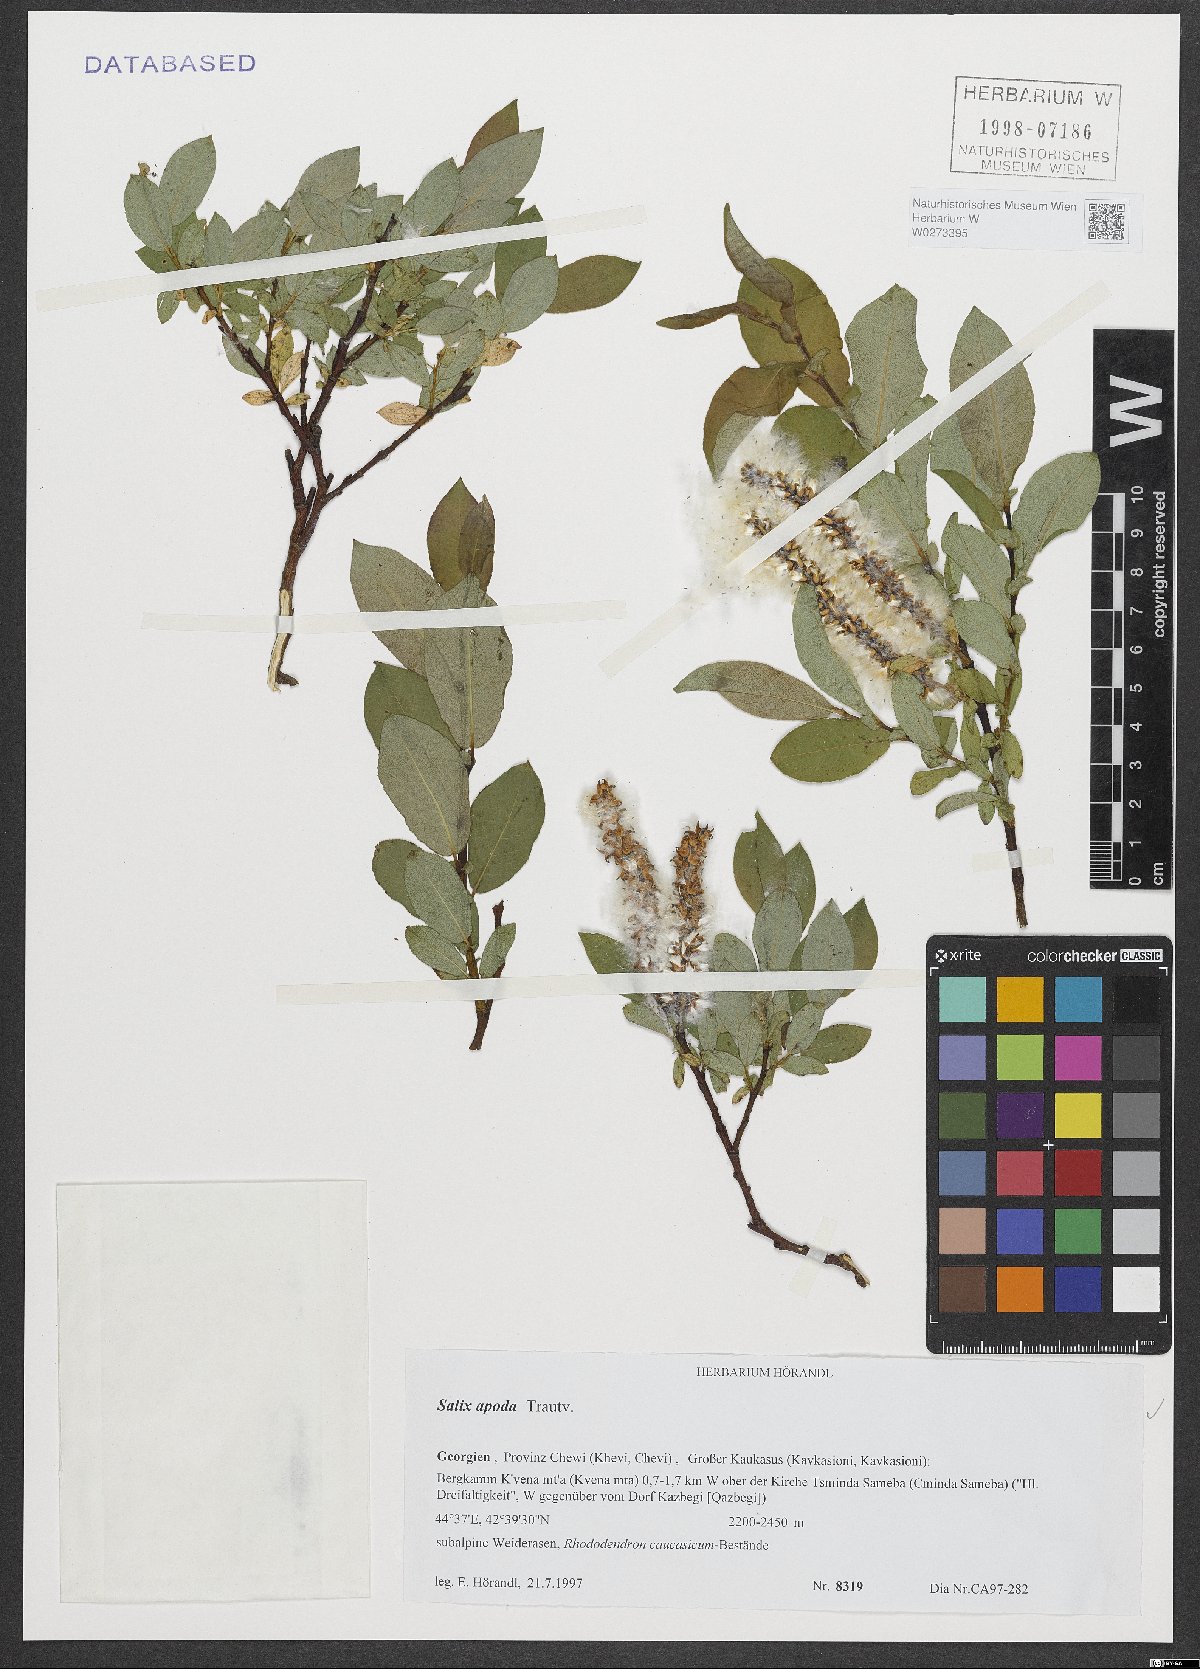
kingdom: Plantae
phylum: Tracheophyta
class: Magnoliopsida
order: Malpighiales
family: Salicaceae
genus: Salix
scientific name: Salix apoda
